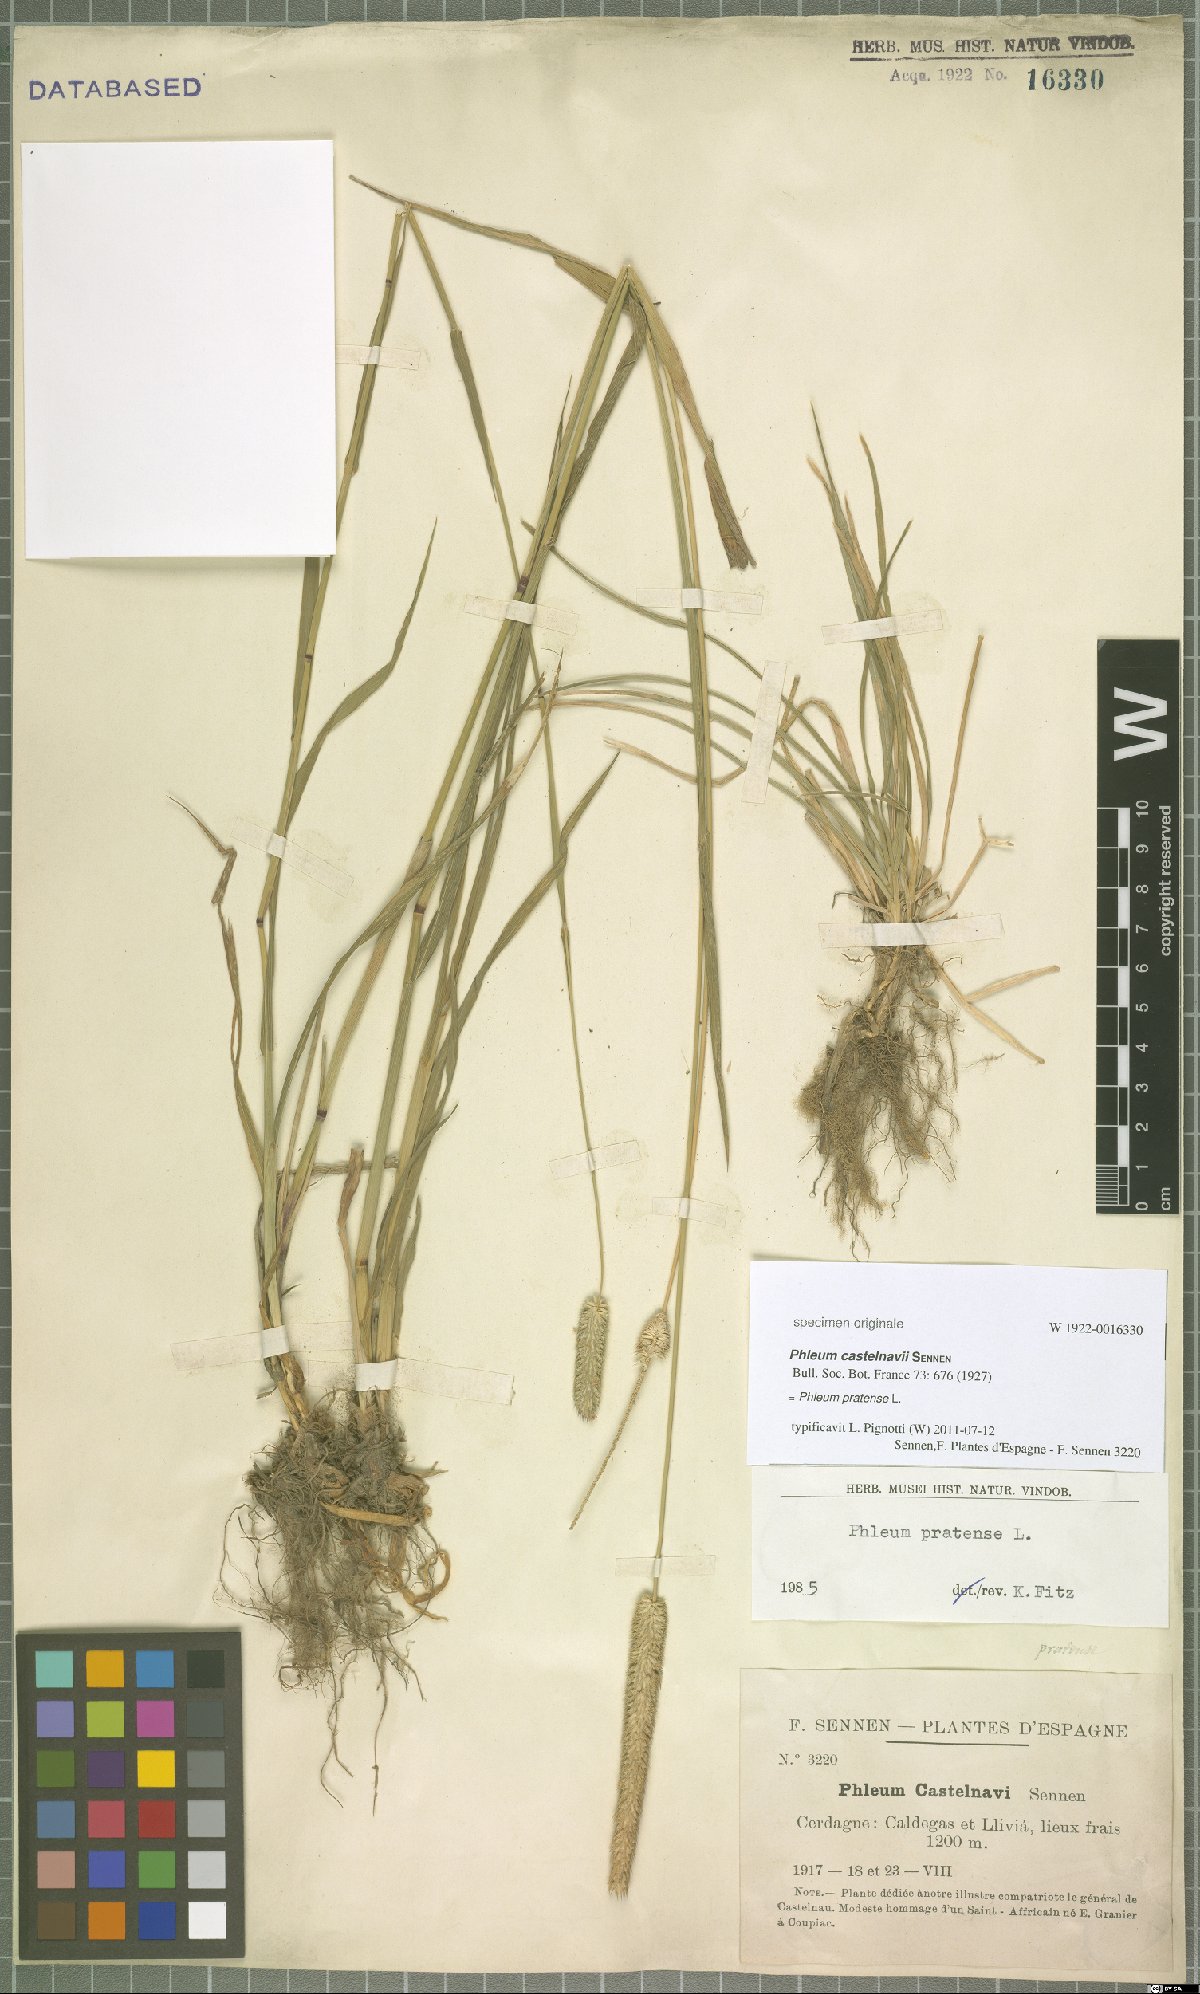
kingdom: Plantae
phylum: Tracheophyta
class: Liliopsida
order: Poales
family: Poaceae
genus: Phleum
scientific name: Phleum pratense
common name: Timothy grass
